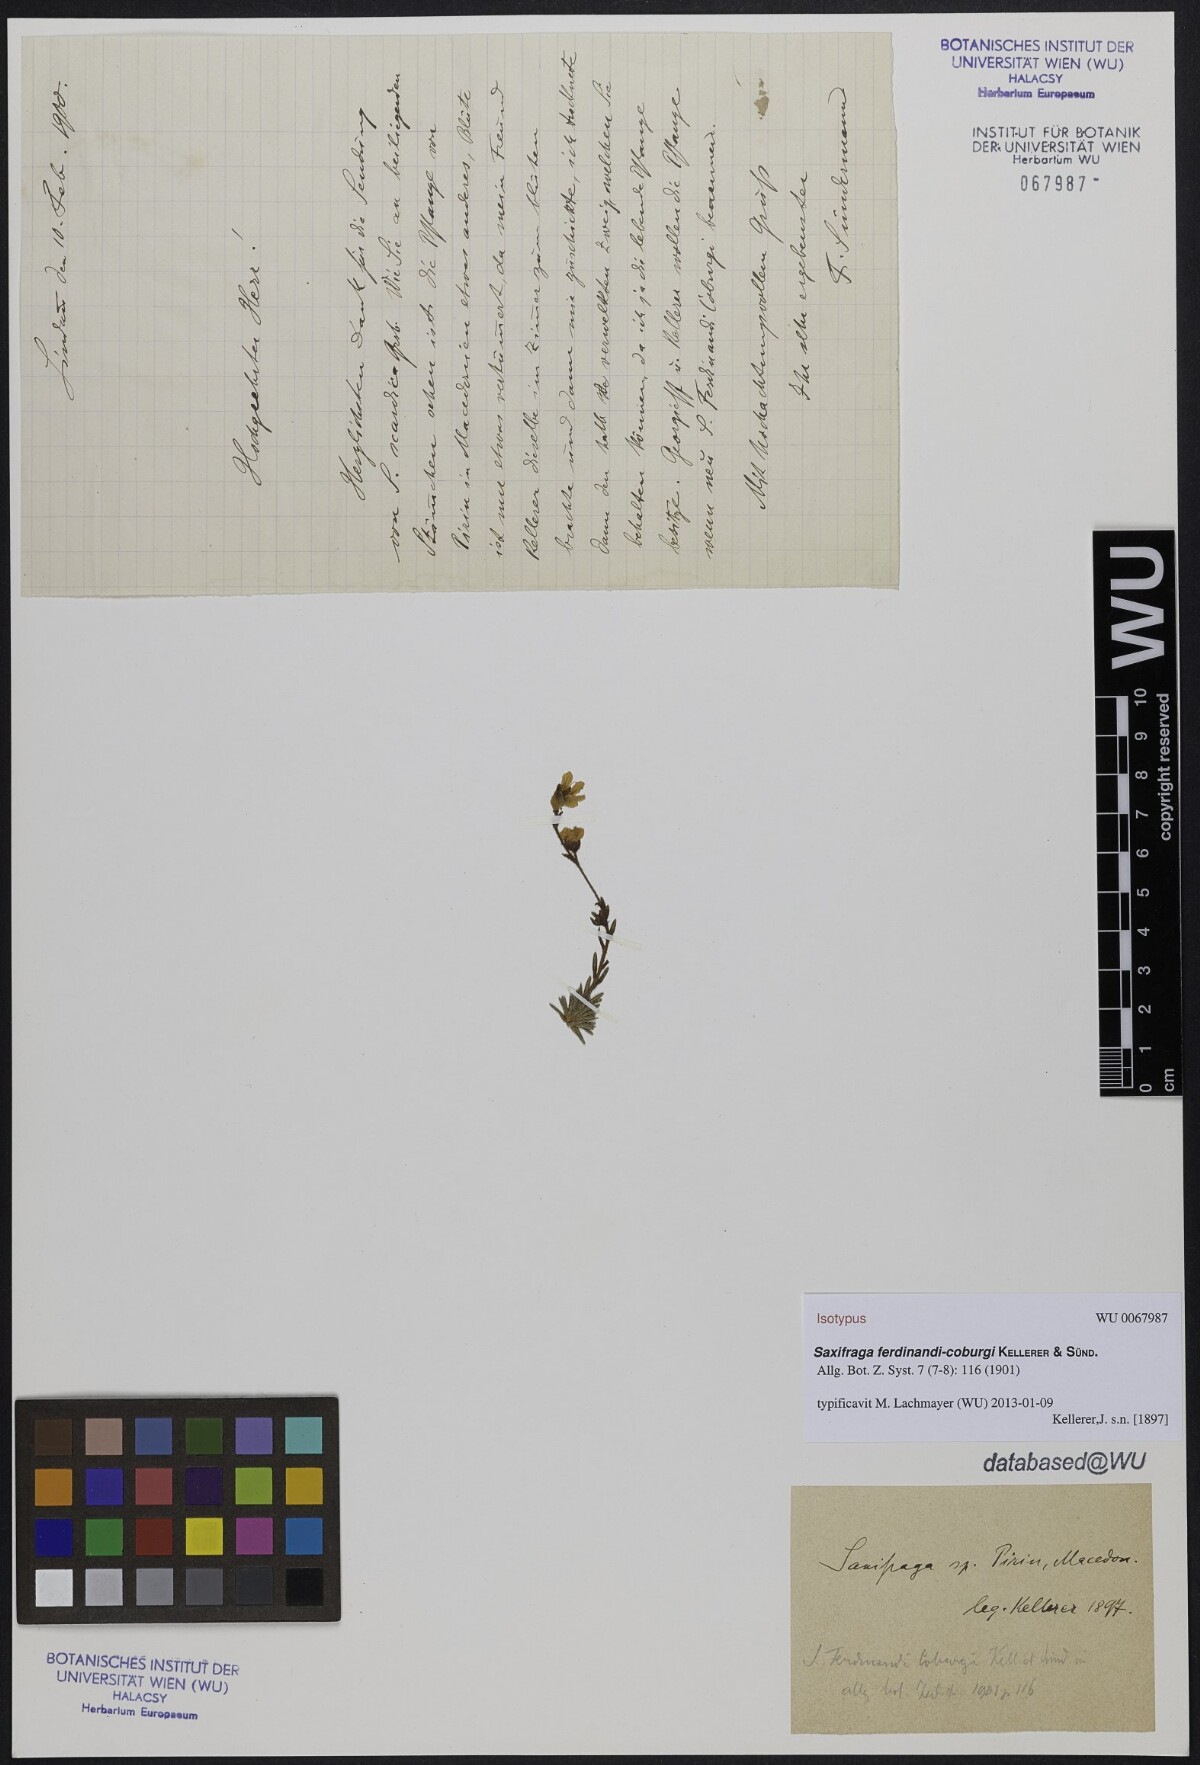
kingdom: Plantae
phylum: Tracheophyta
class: Magnoliopsida
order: Saxifragales
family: Saxifragaceae
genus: Saxifraga
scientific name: Saxifraga ferdinandi-coburgi
